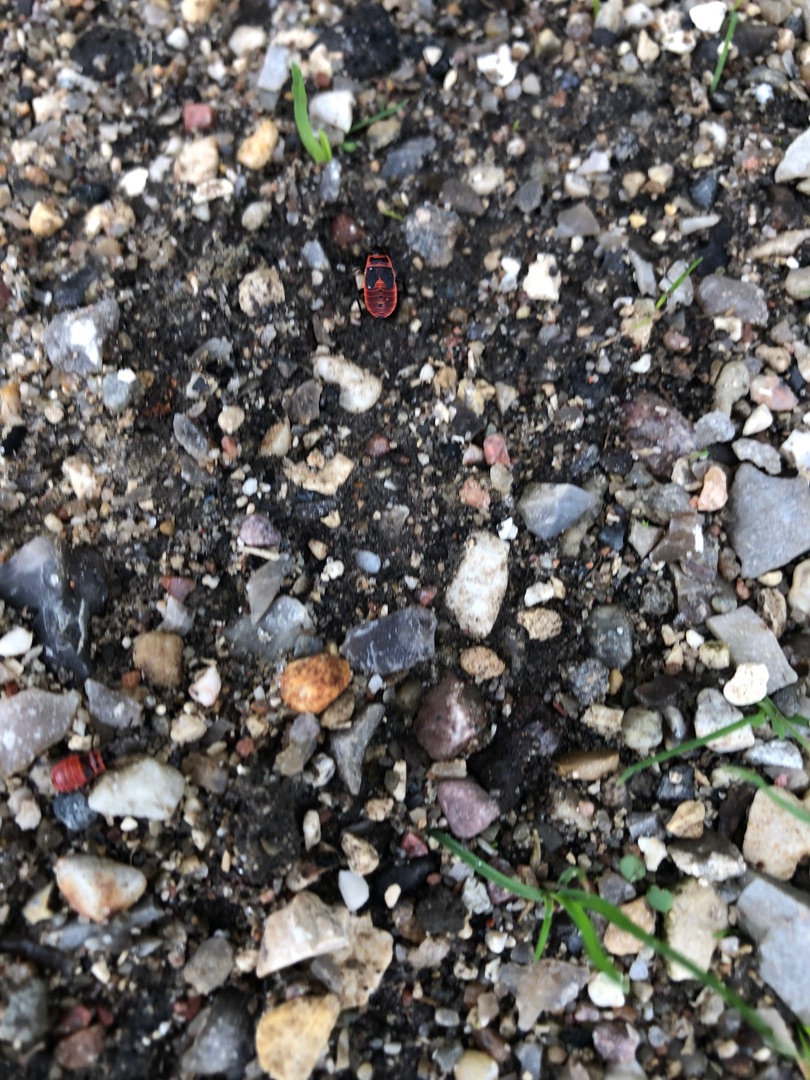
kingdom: Animalia
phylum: Arthropoda
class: Insecta
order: Hemiptera
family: Pyrrhocoridae
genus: Pyrrhocoris
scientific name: Pyrrhocoris apterus
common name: Ildtæge
